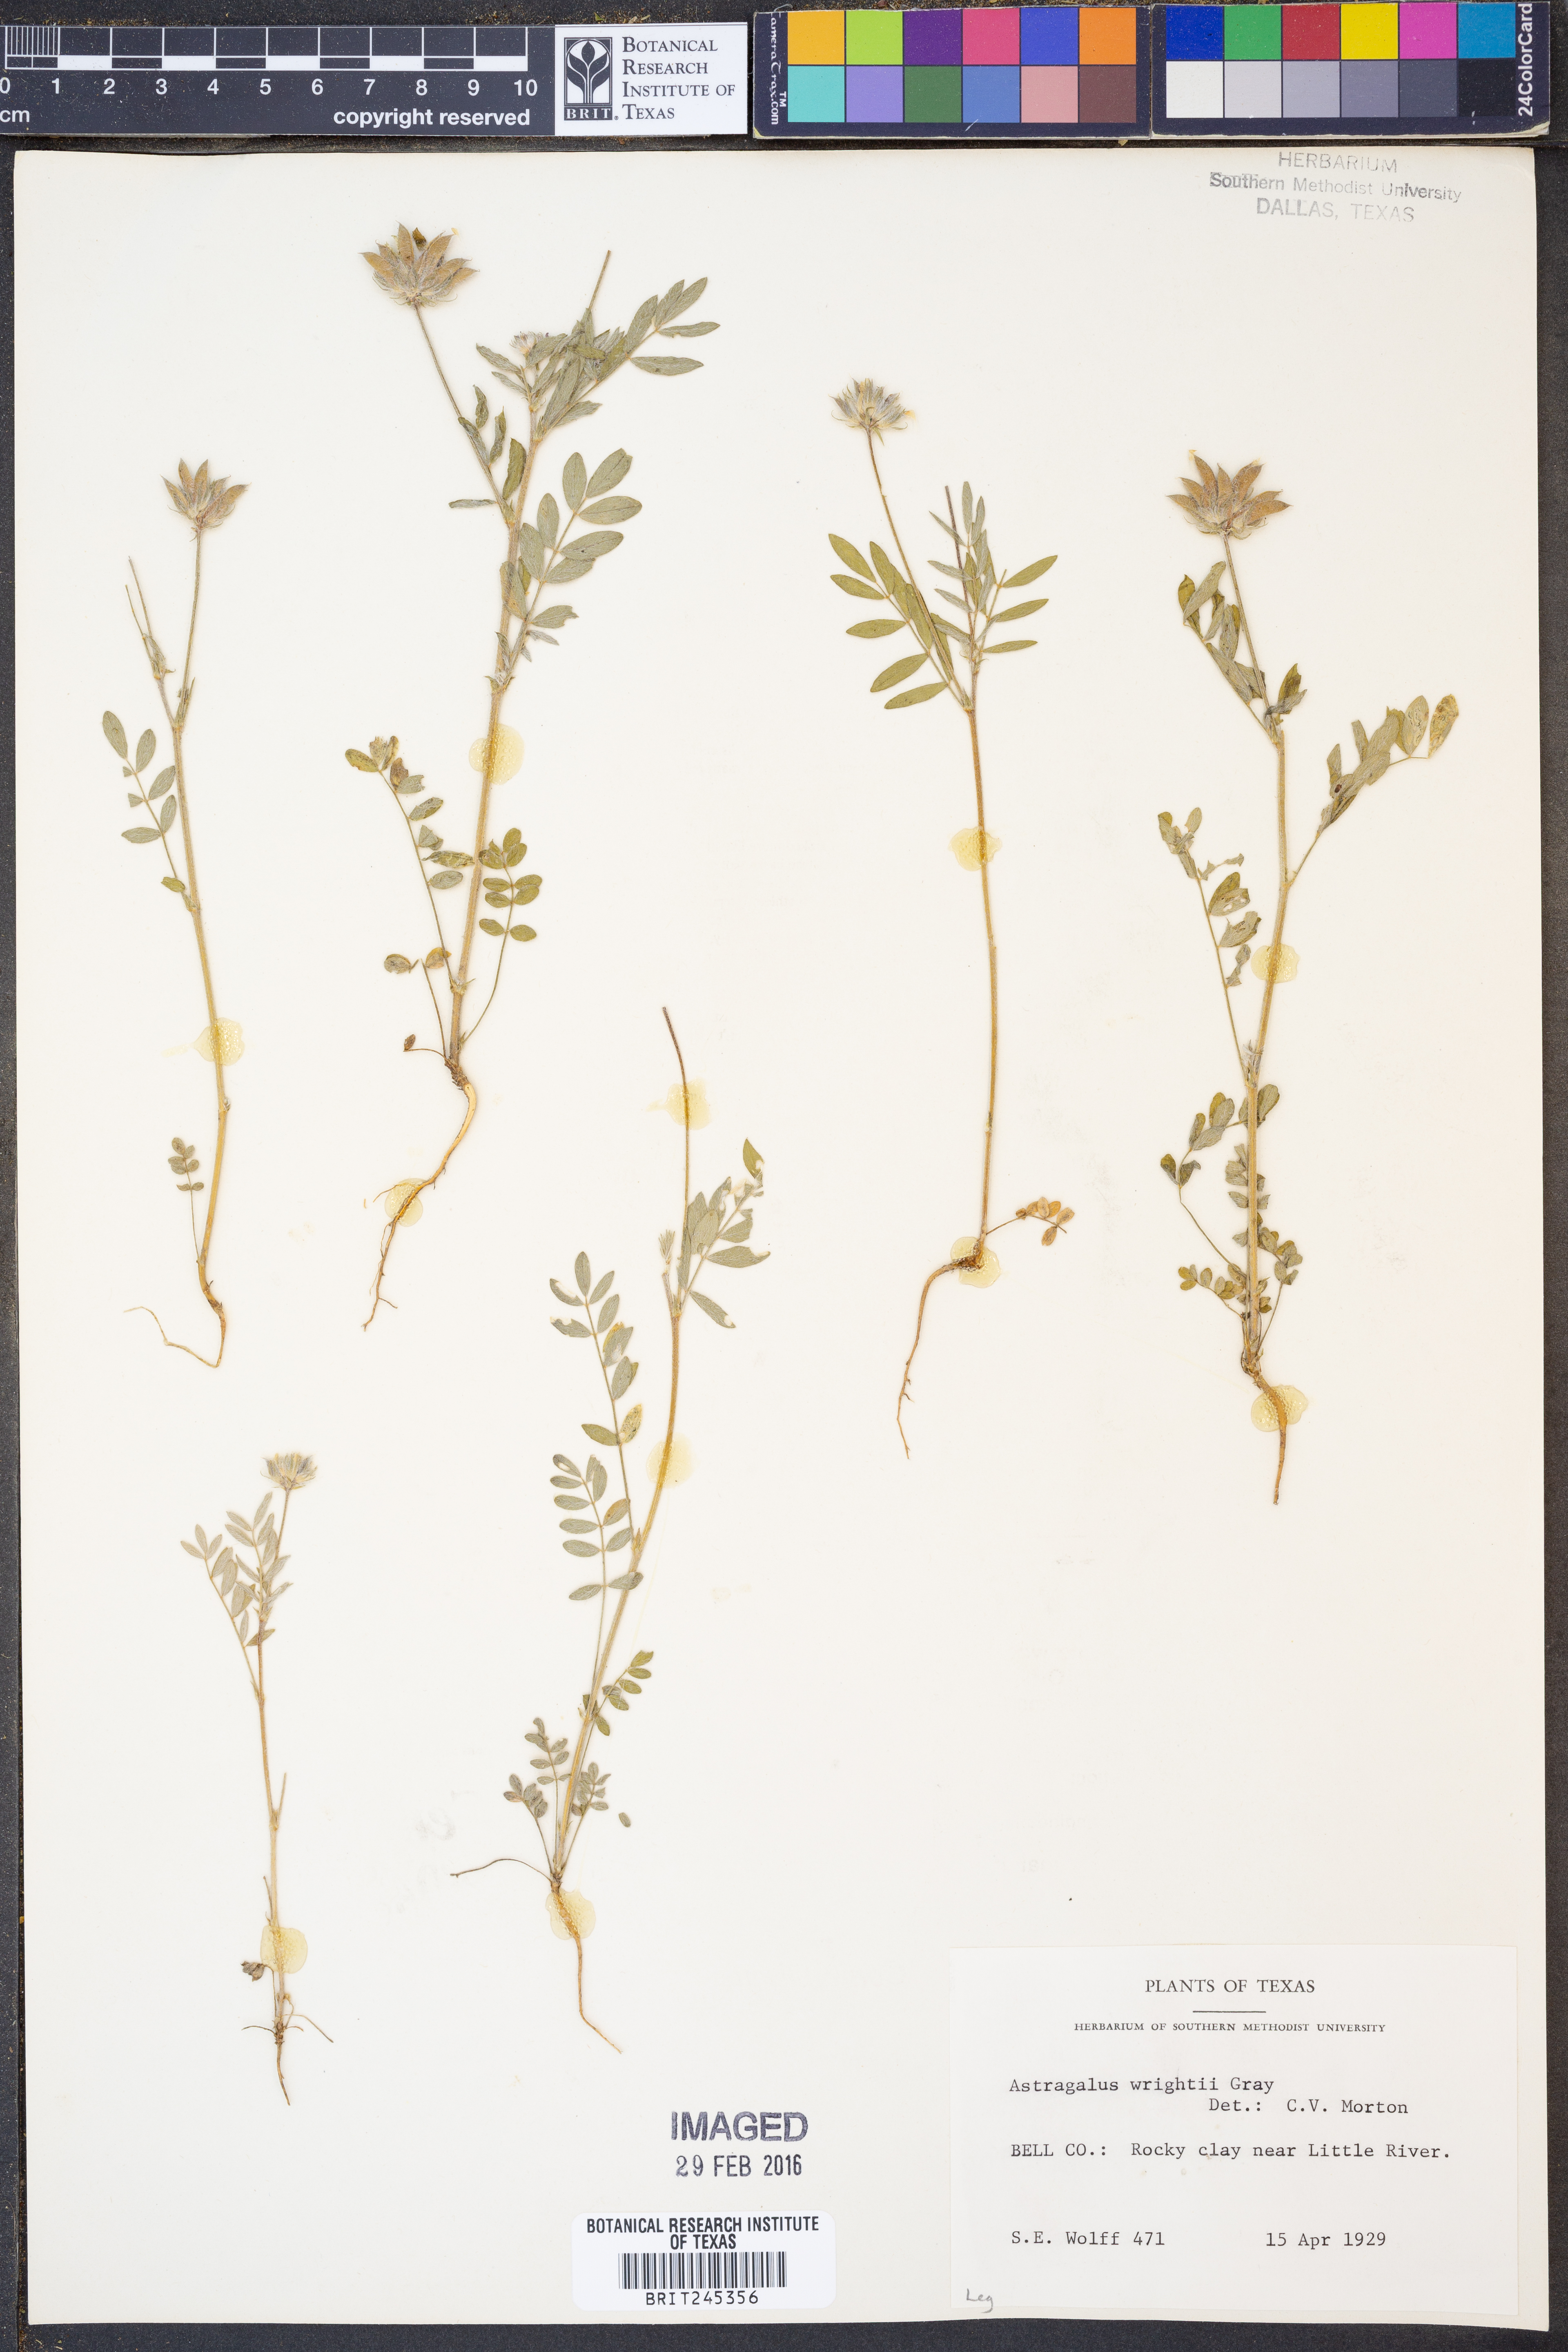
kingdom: Plantae
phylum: Tracheophyta
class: Magnoliopsida
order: Fabales
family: Fabaceae
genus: Astragalus
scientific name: Astragalus wrightii
